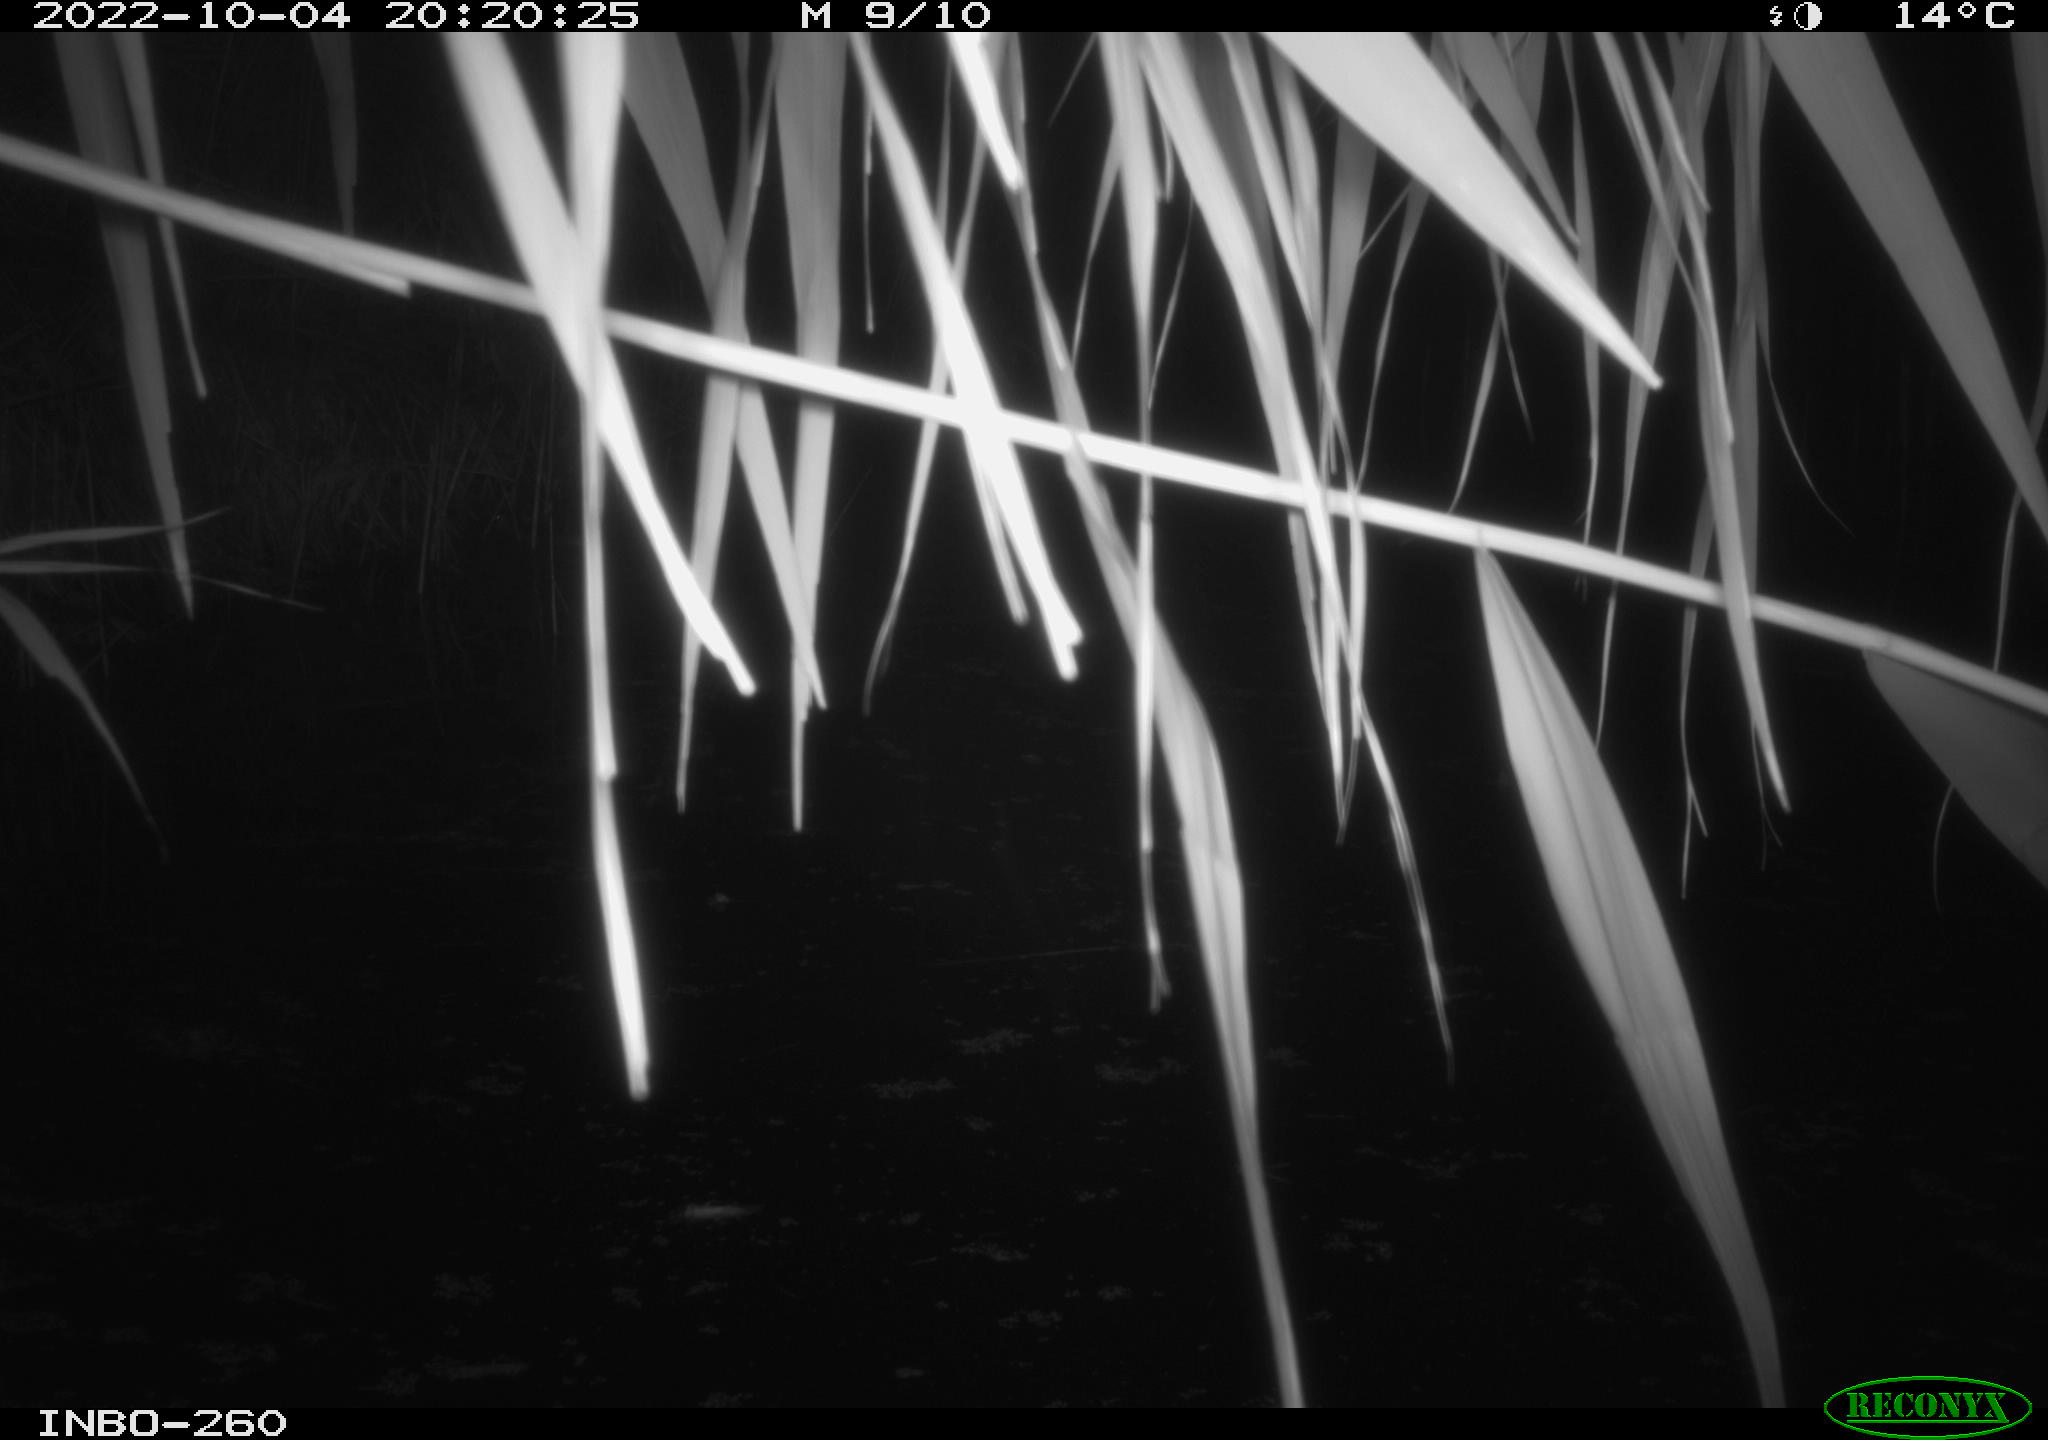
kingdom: Animalia
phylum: Chordata
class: Mammalia
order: Rodentia
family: Muridae
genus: Rattus
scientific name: Rattus norvegicus
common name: Brown rat
